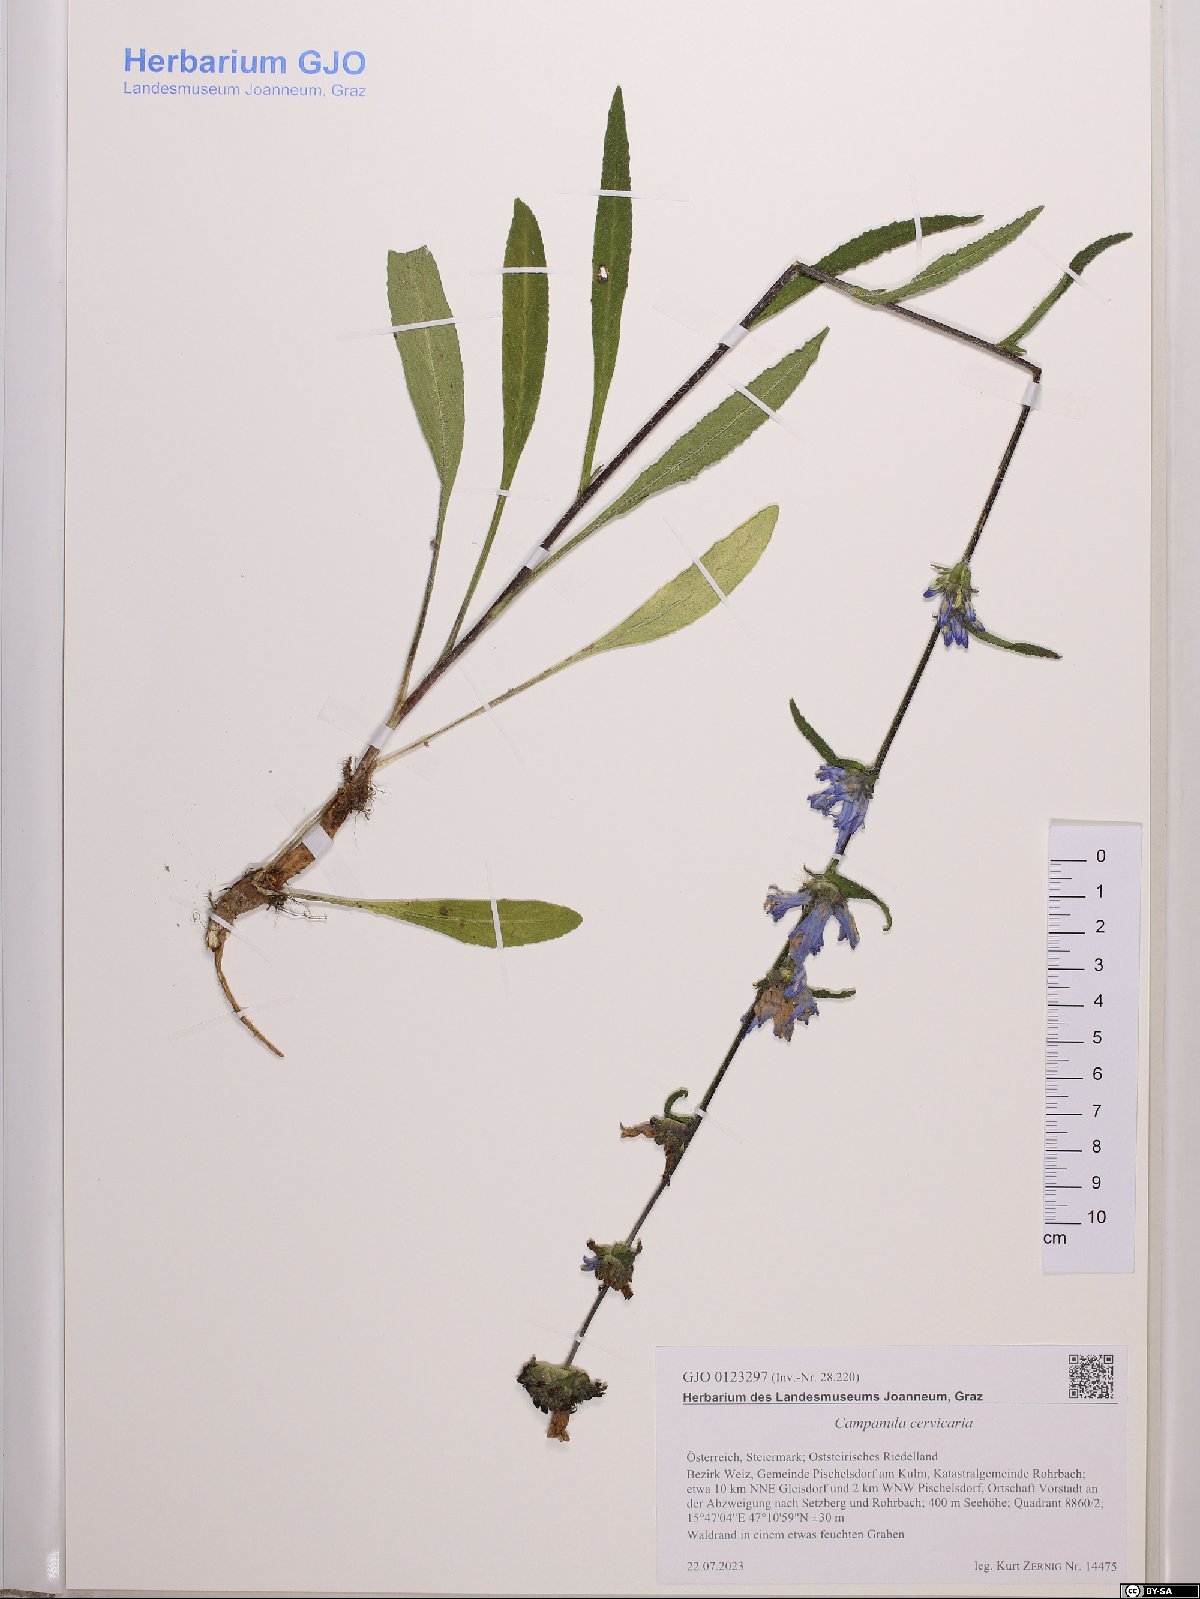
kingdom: Plantae
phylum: Tracheophyta
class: Magnoliopsida
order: Asterales
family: Campanulaceae
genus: Campanula
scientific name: Campanula cervicaria
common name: Bristly bellflower
